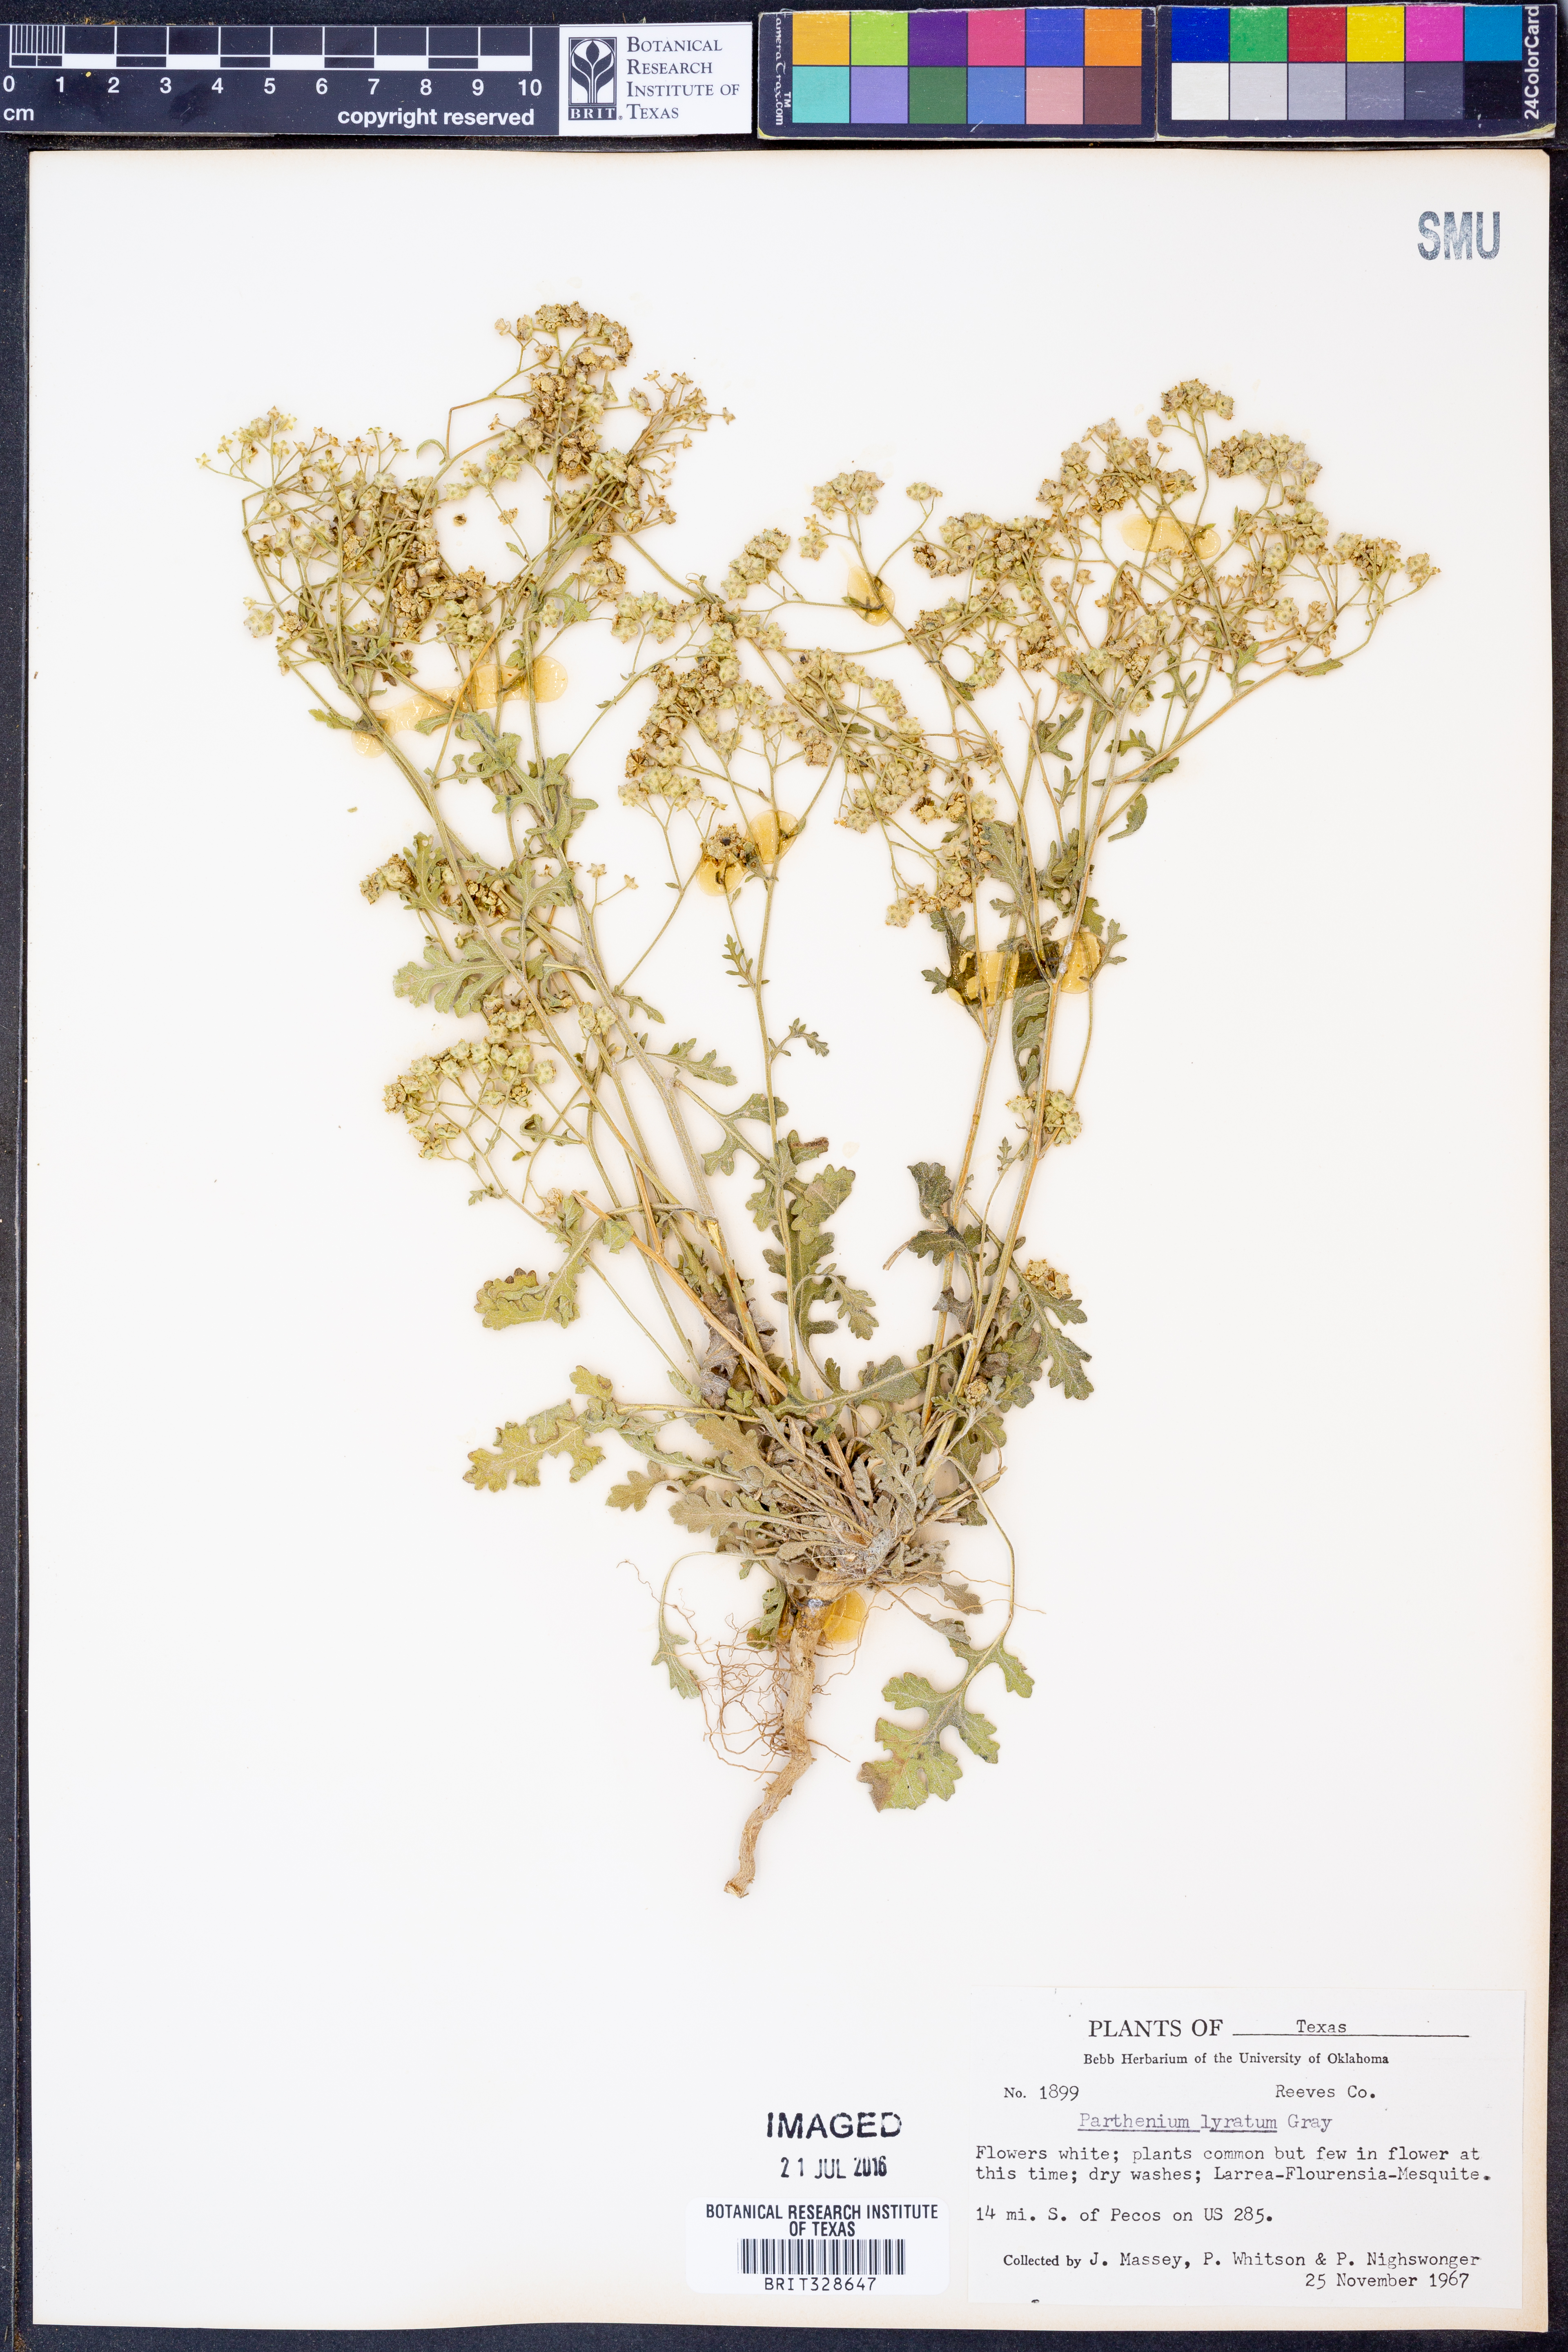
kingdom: Plantae
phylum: Tracheophyta
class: Magnoliopsida
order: Asterales
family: Asteraceae
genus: Parthenium
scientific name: Parthenium confertum
